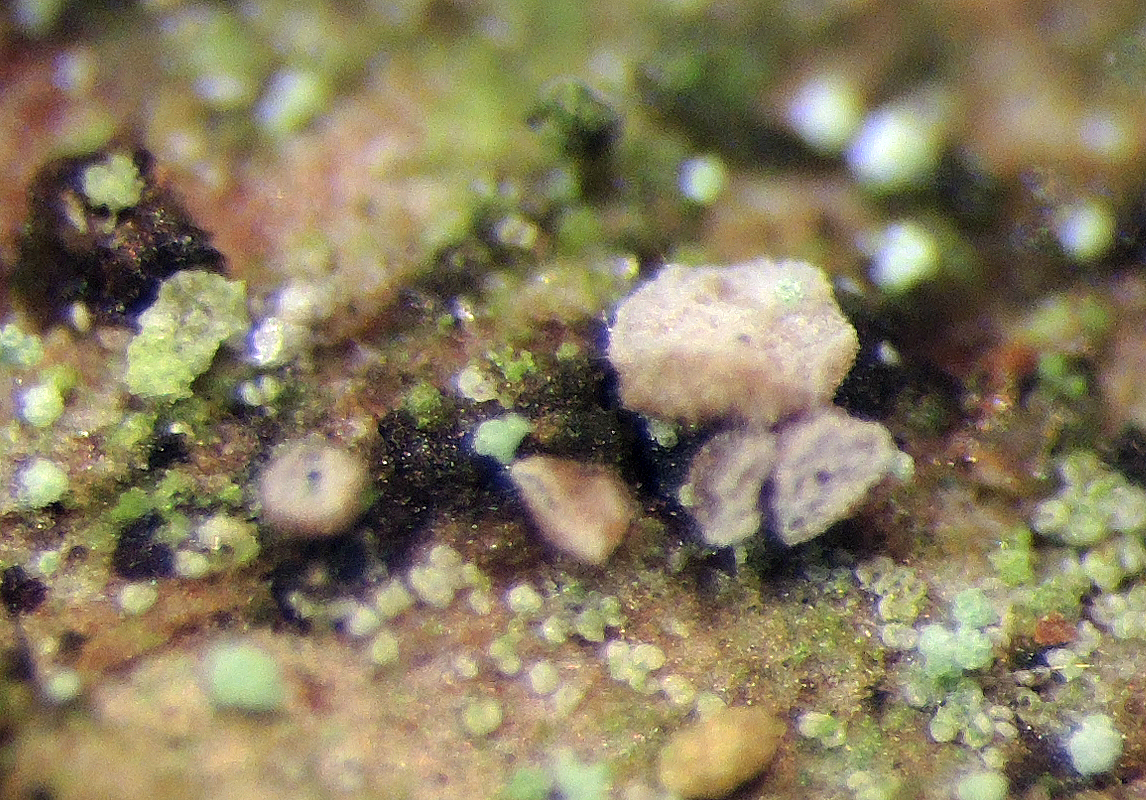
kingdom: Fungi
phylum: Ascomycota
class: Leotiomycetes
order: Helotiales
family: Hamatocanthoscyphaceae
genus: Ciliolarina
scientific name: Ciliolarina pinicola
